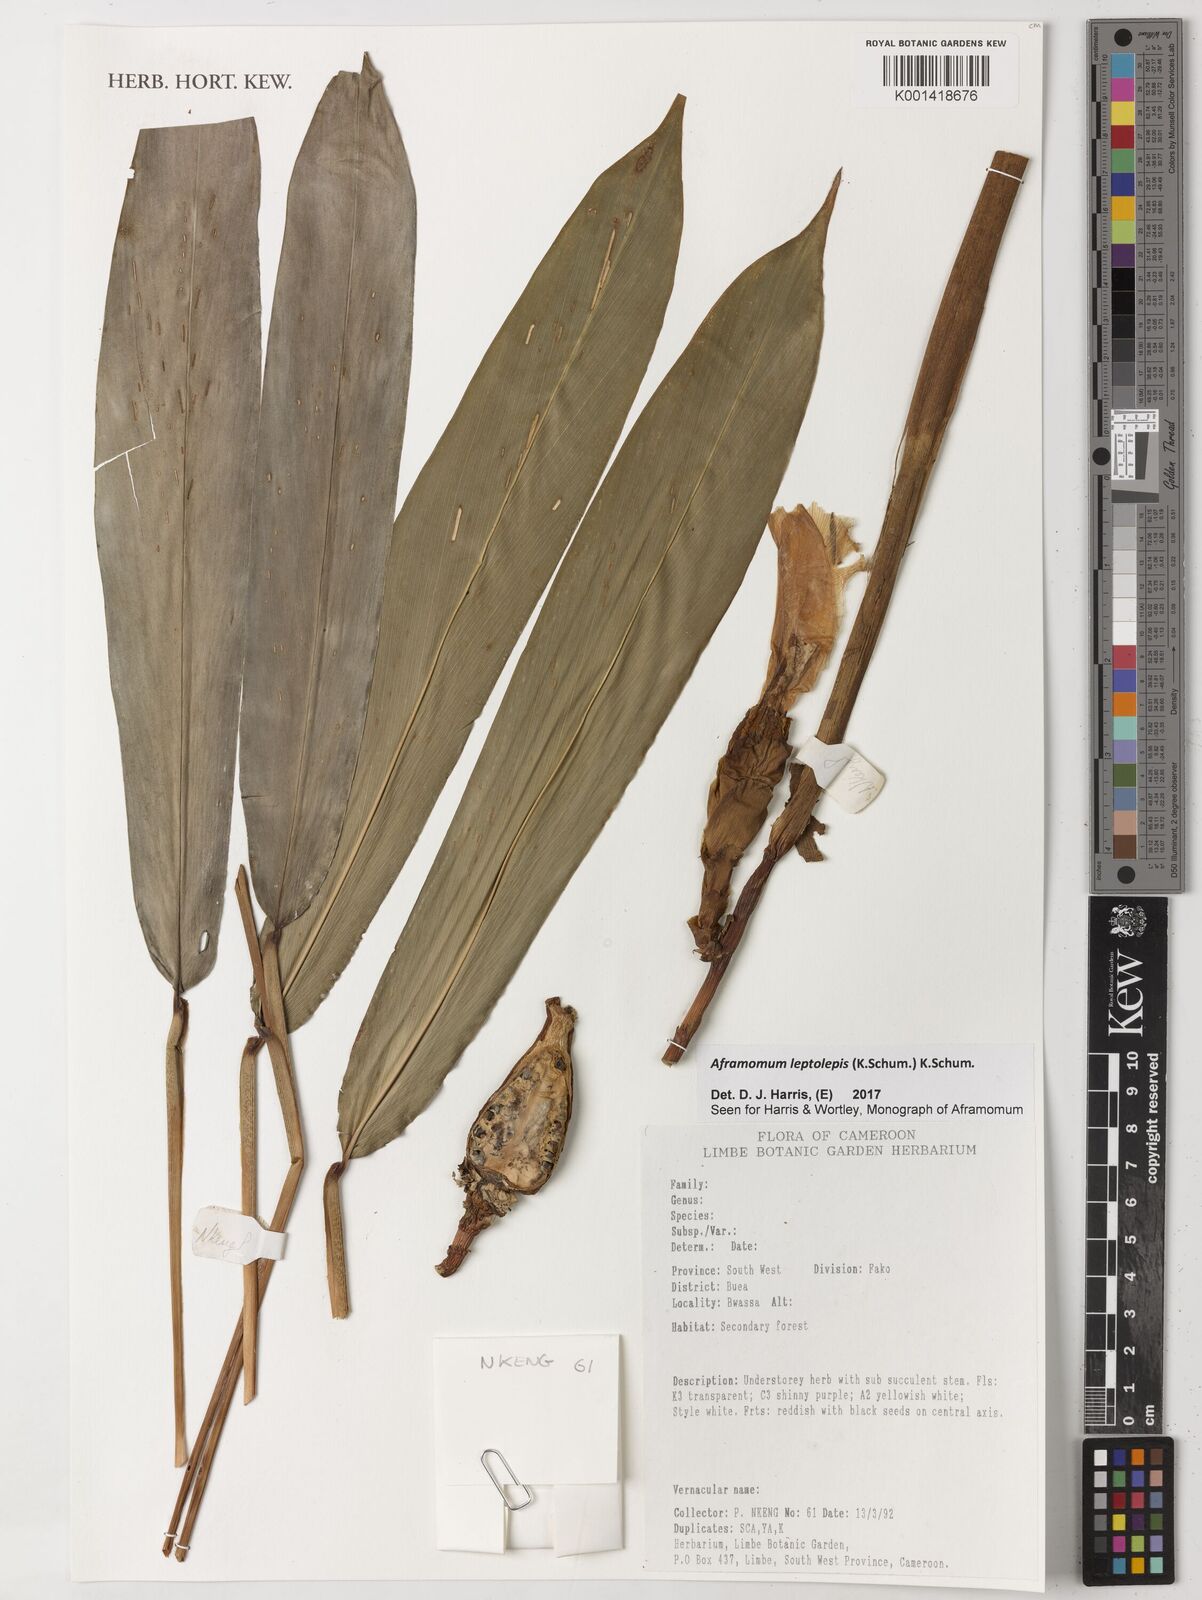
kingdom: Plantae
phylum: Tracheophyta
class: Liliopsida
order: Zingiberales
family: Zingiberaceae
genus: Aframomum
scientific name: Aframomum leptolepis
